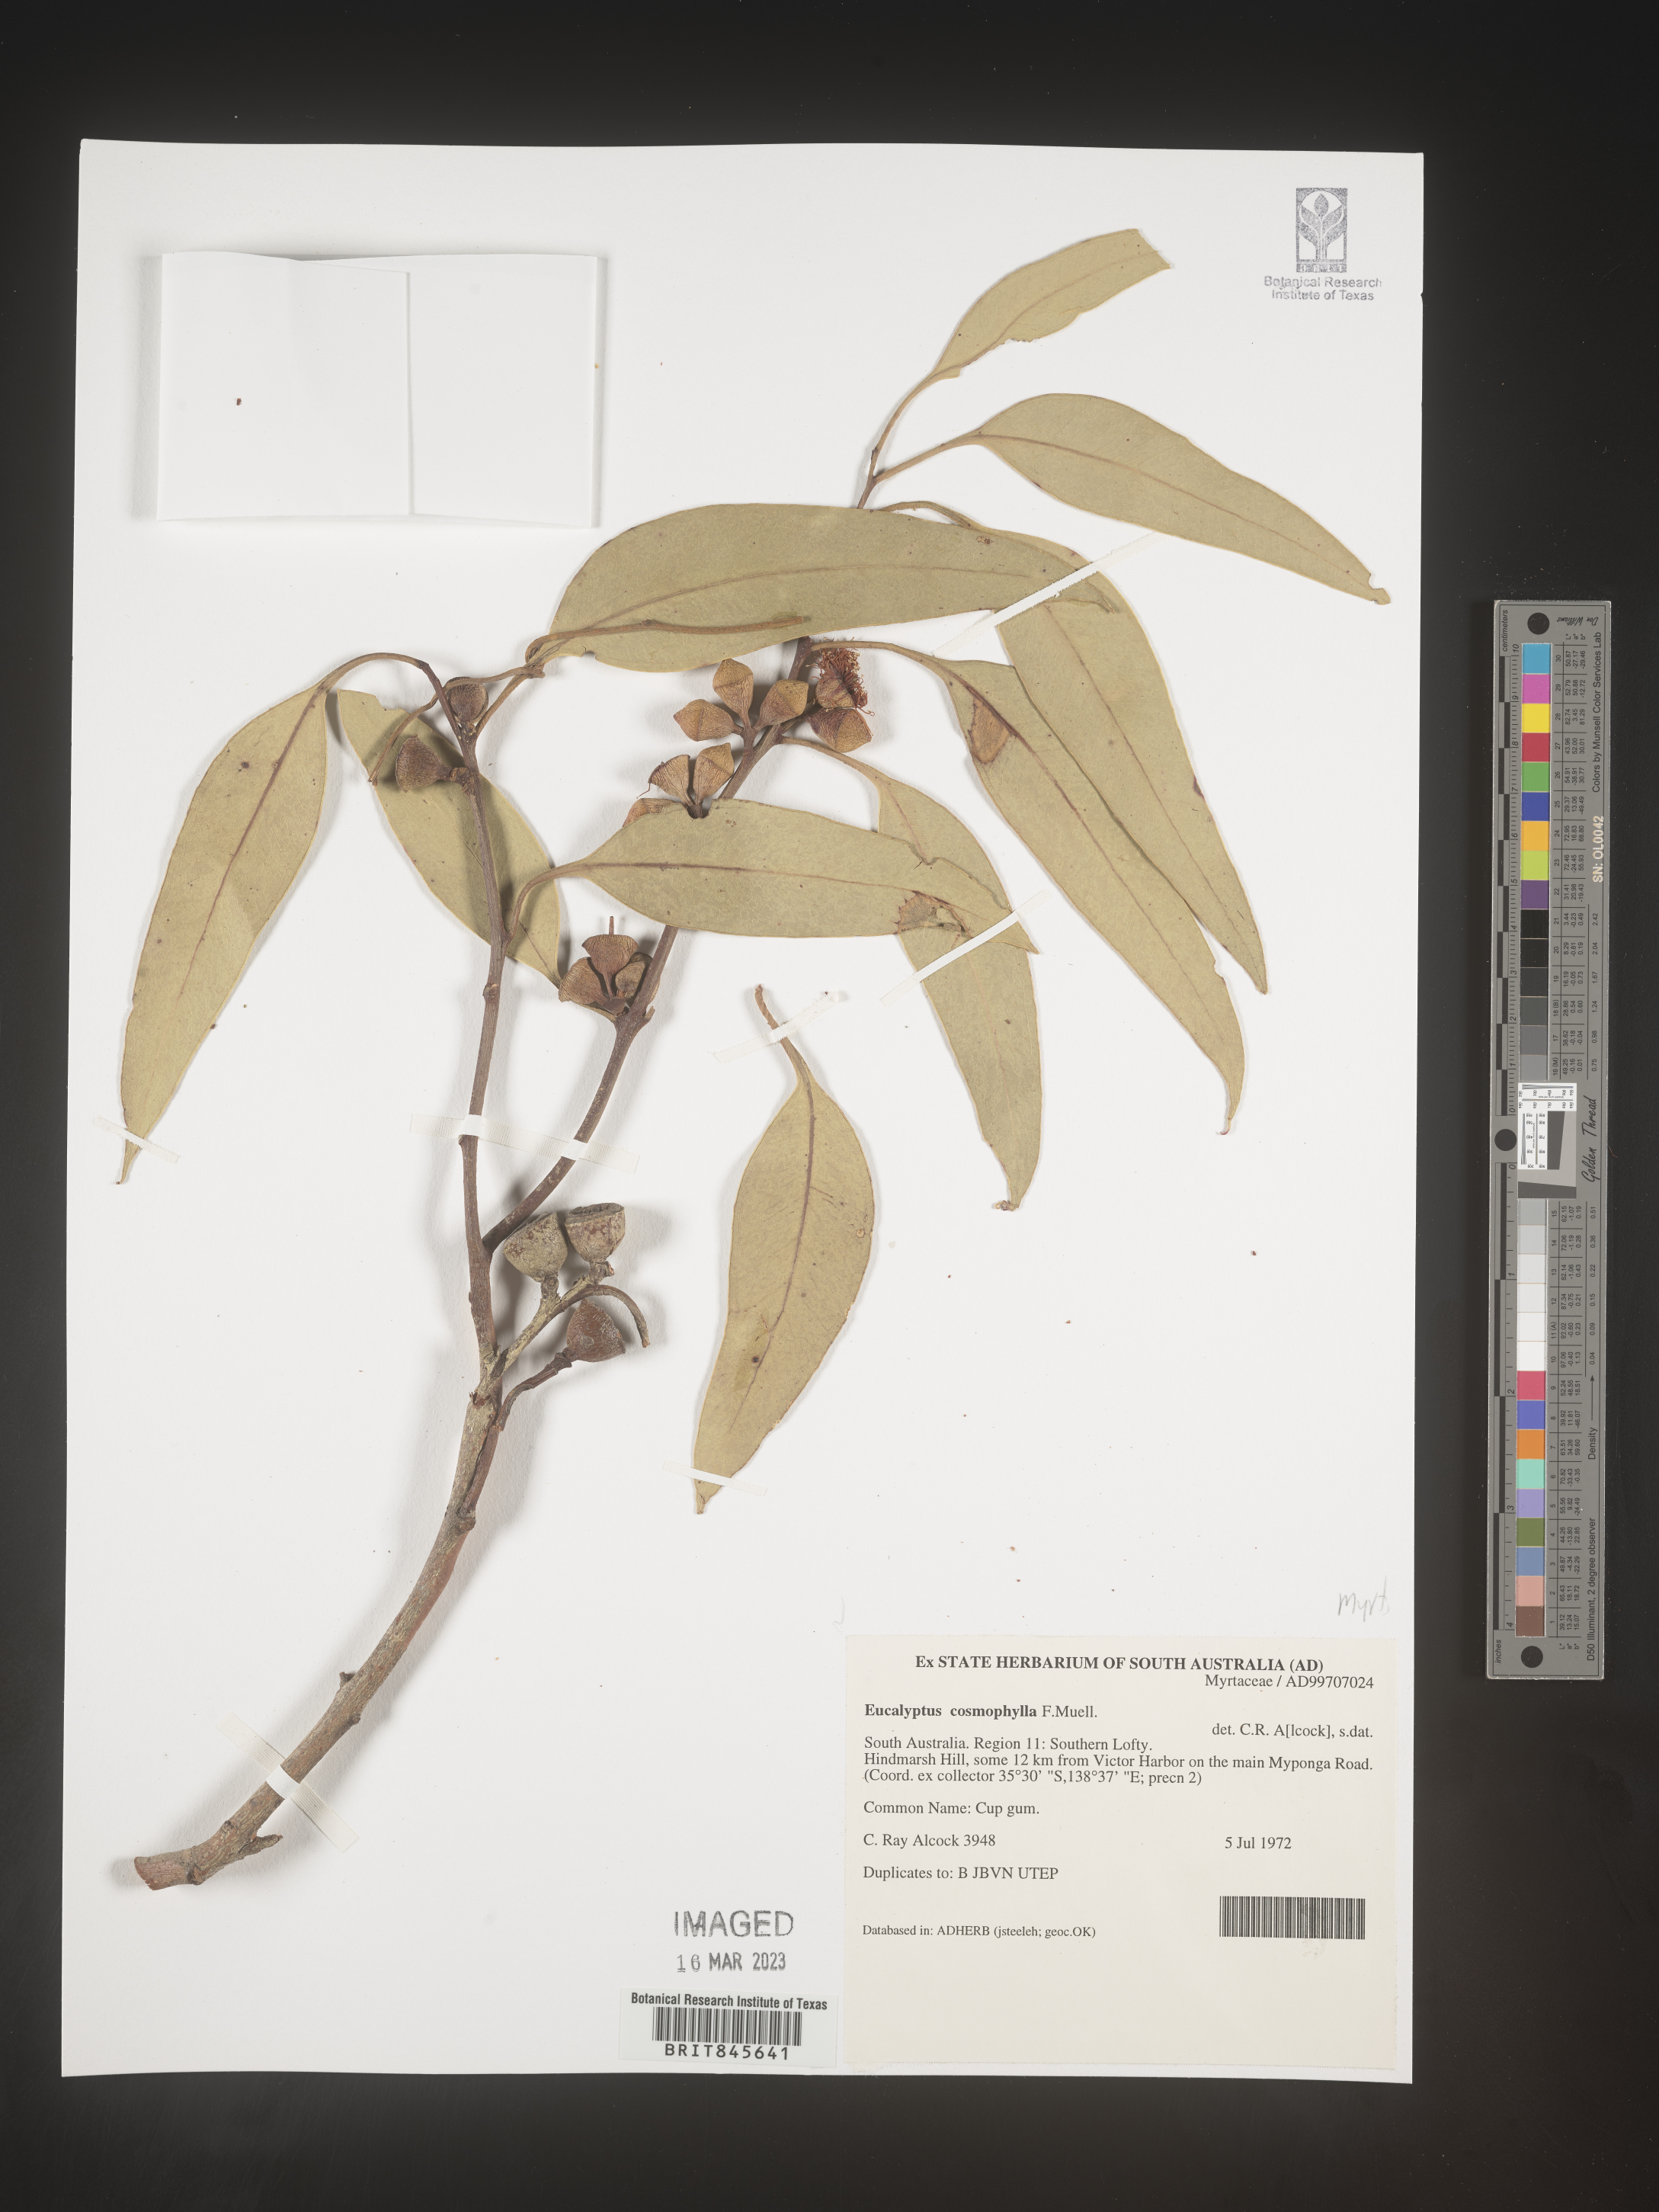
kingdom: Plantae
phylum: Tracheophyta
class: Magnoliopsida
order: Myrtales
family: Myrtaceae
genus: Eucalyptus
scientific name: Eucalyptus
